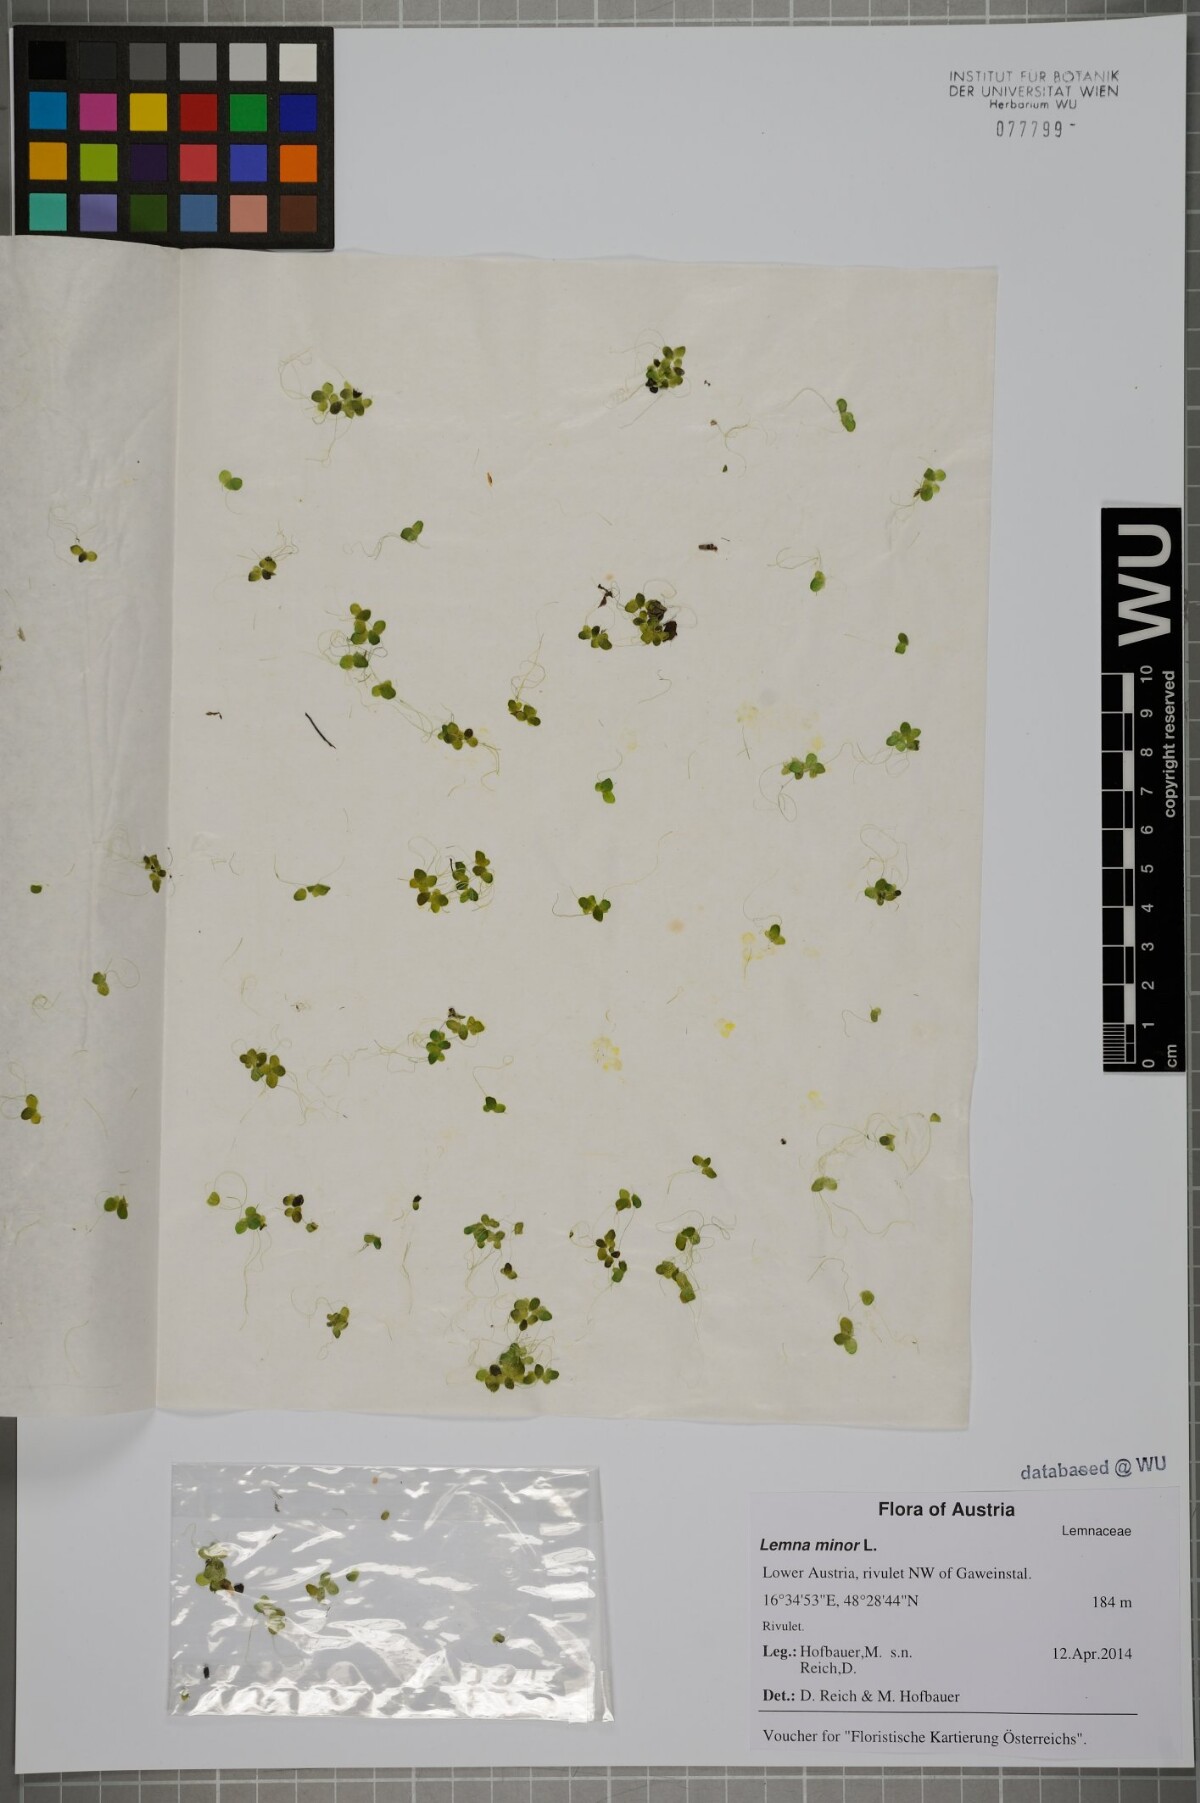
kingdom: Plantae
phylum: Tracheophyta
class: Liliopsida
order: Alismatales
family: Araceae
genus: Lemna
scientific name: Lemna minor
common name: Common duckweed
